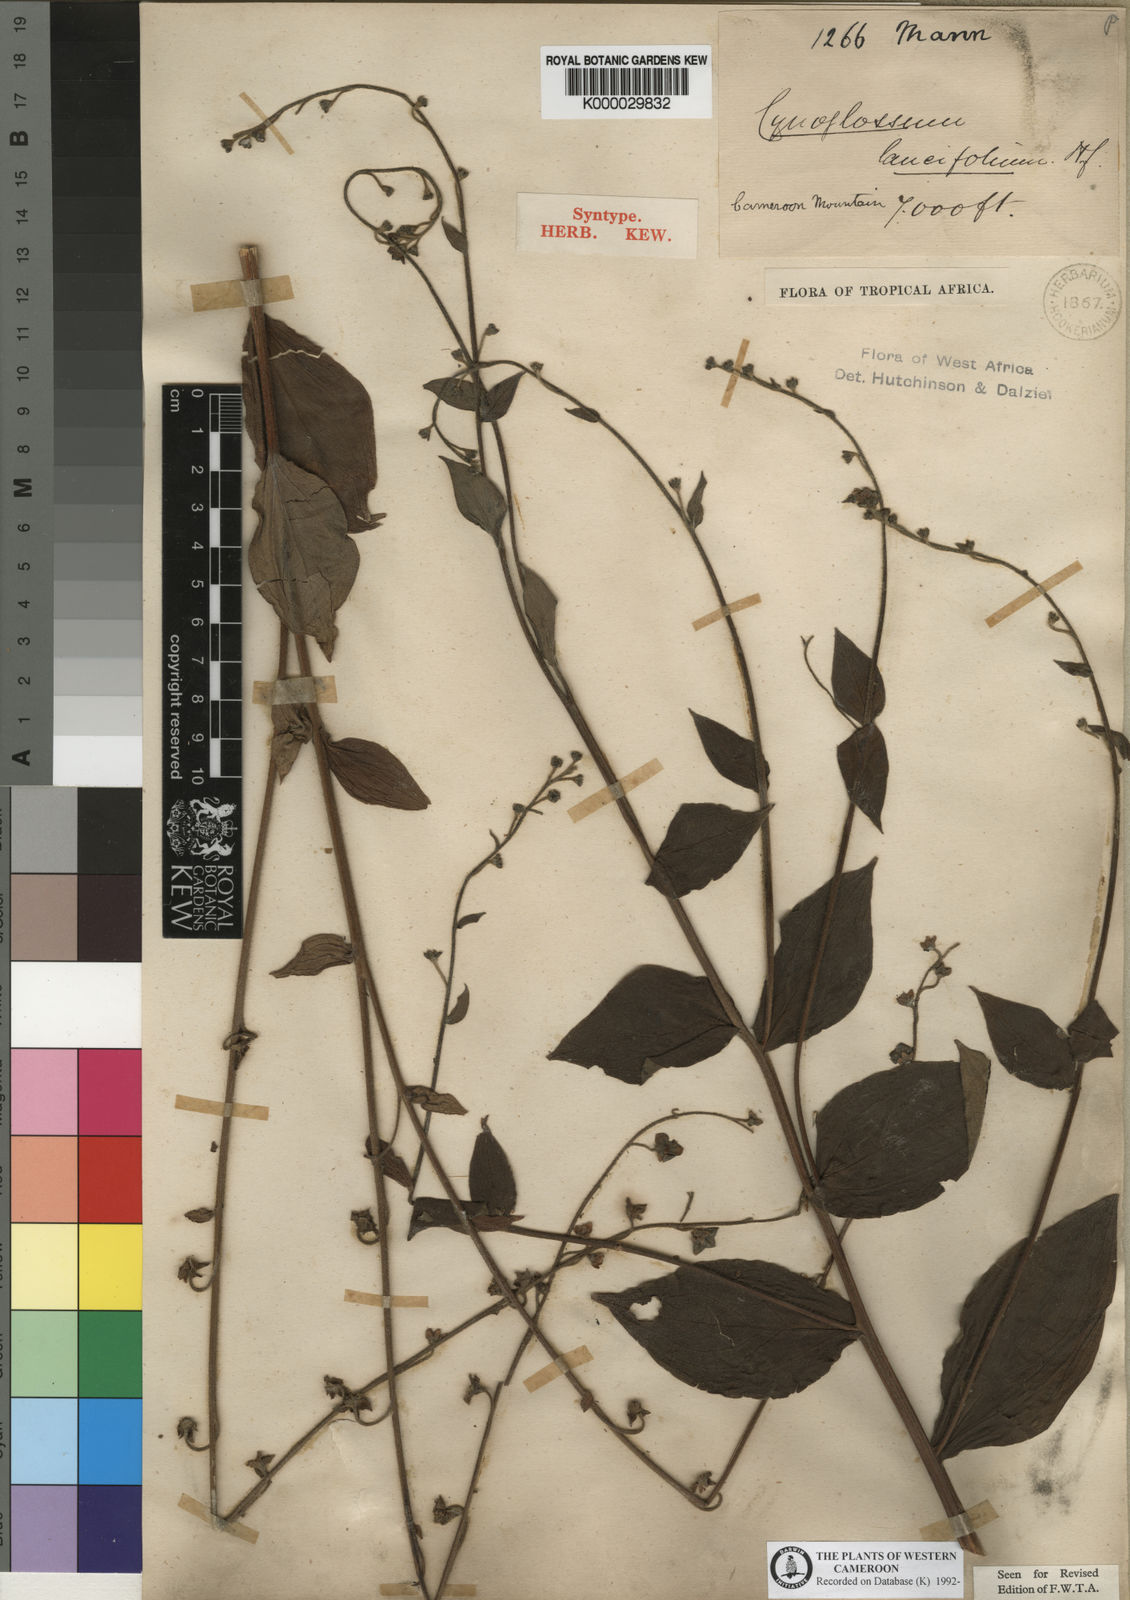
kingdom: Plantae
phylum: Tracheophyta
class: Magnoliopsida
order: Boraginales
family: Boraginaceae
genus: Cynoglossum
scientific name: Cynoglossum amplifolium
